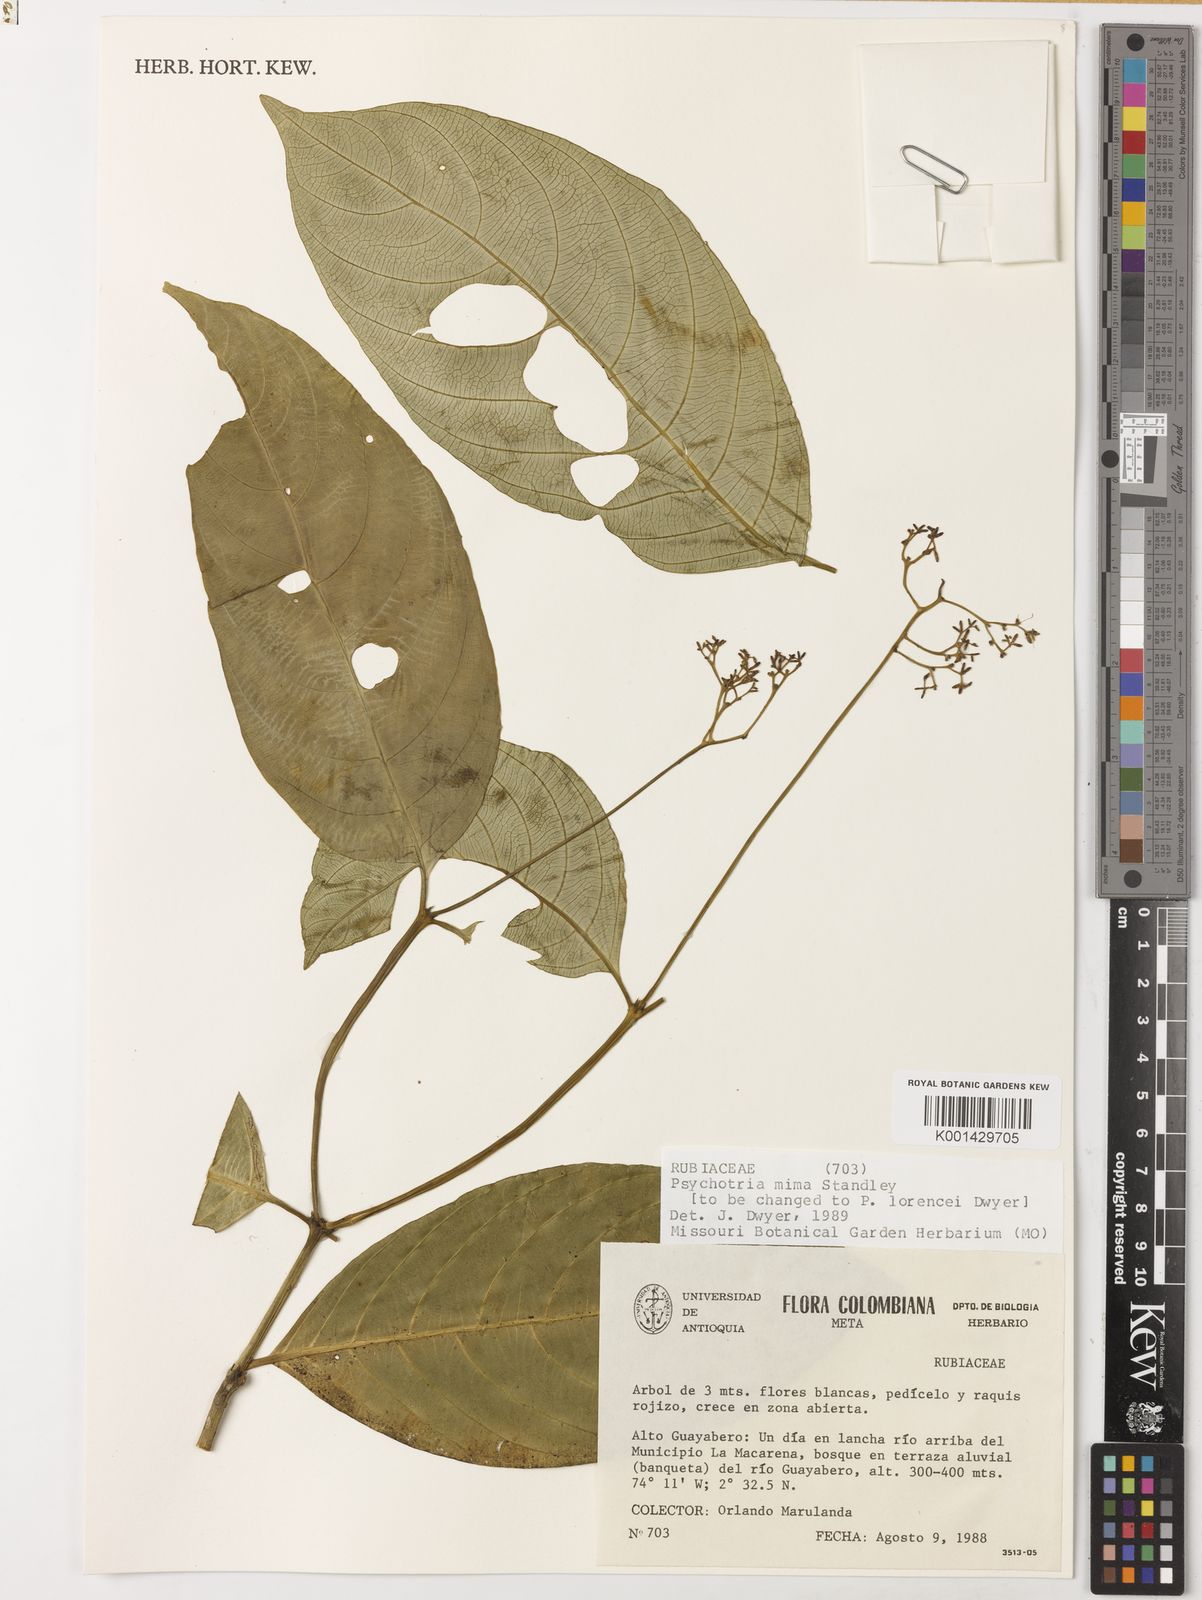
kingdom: Plantae
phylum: Tracheophyta
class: Magnoliopsida
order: Gentianales
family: Rubiaceae
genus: Palicourea
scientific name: Palicourea angustiflora
